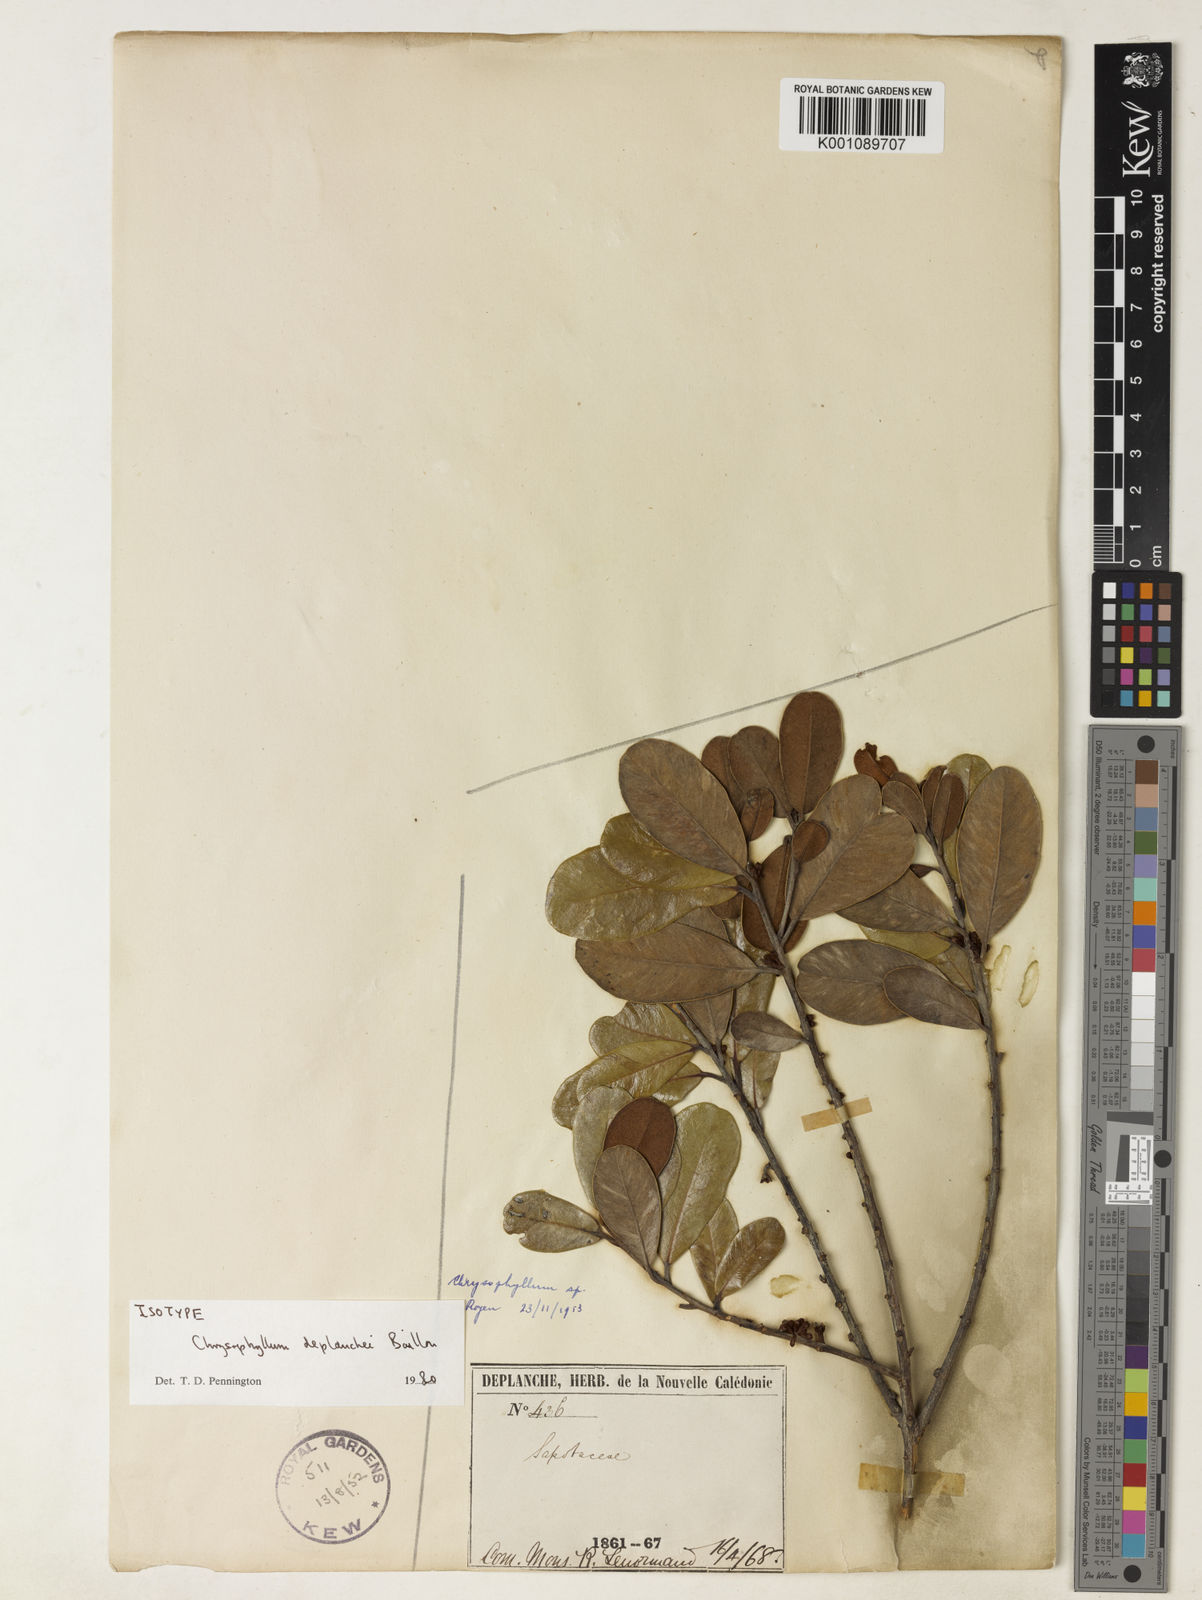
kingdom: Plantae
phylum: Tracheophyta
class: Magnoliopsida
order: Ericales
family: Sapotaceae
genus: Pycnandra
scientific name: Pycnandra deplanchei
